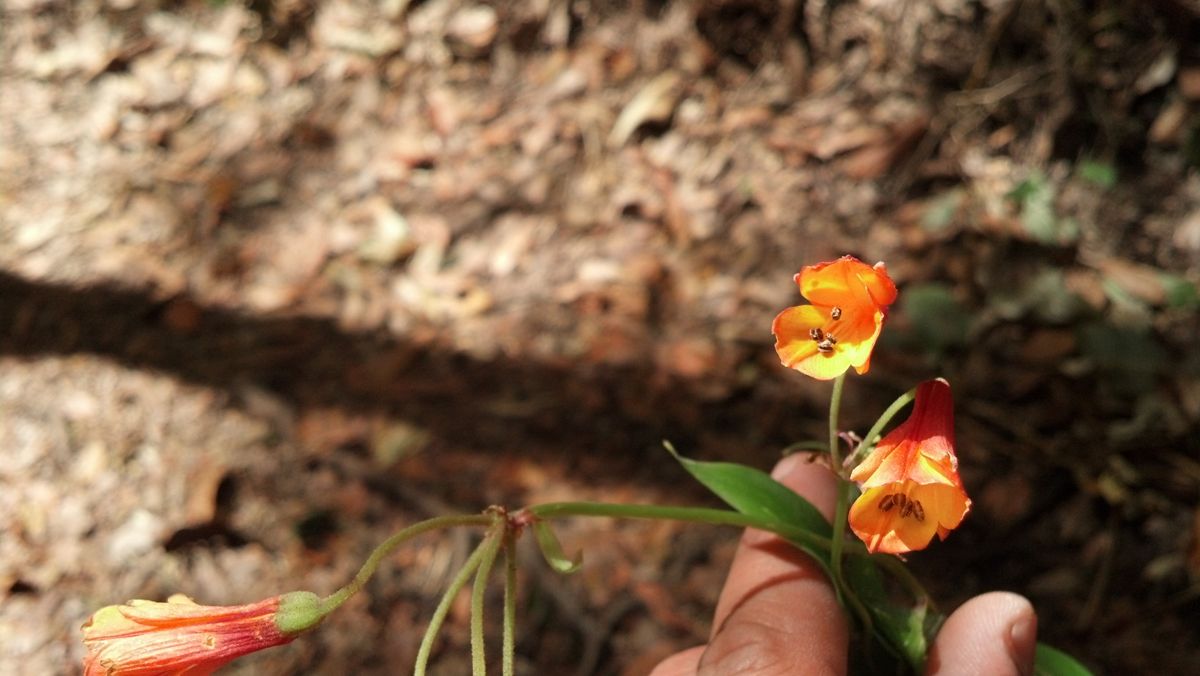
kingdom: Plantae
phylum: Tracheophyta
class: Liliopsida
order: Liliales
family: Alstroemeriaceae
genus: Bomarea
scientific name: Bomarea acutifolia
